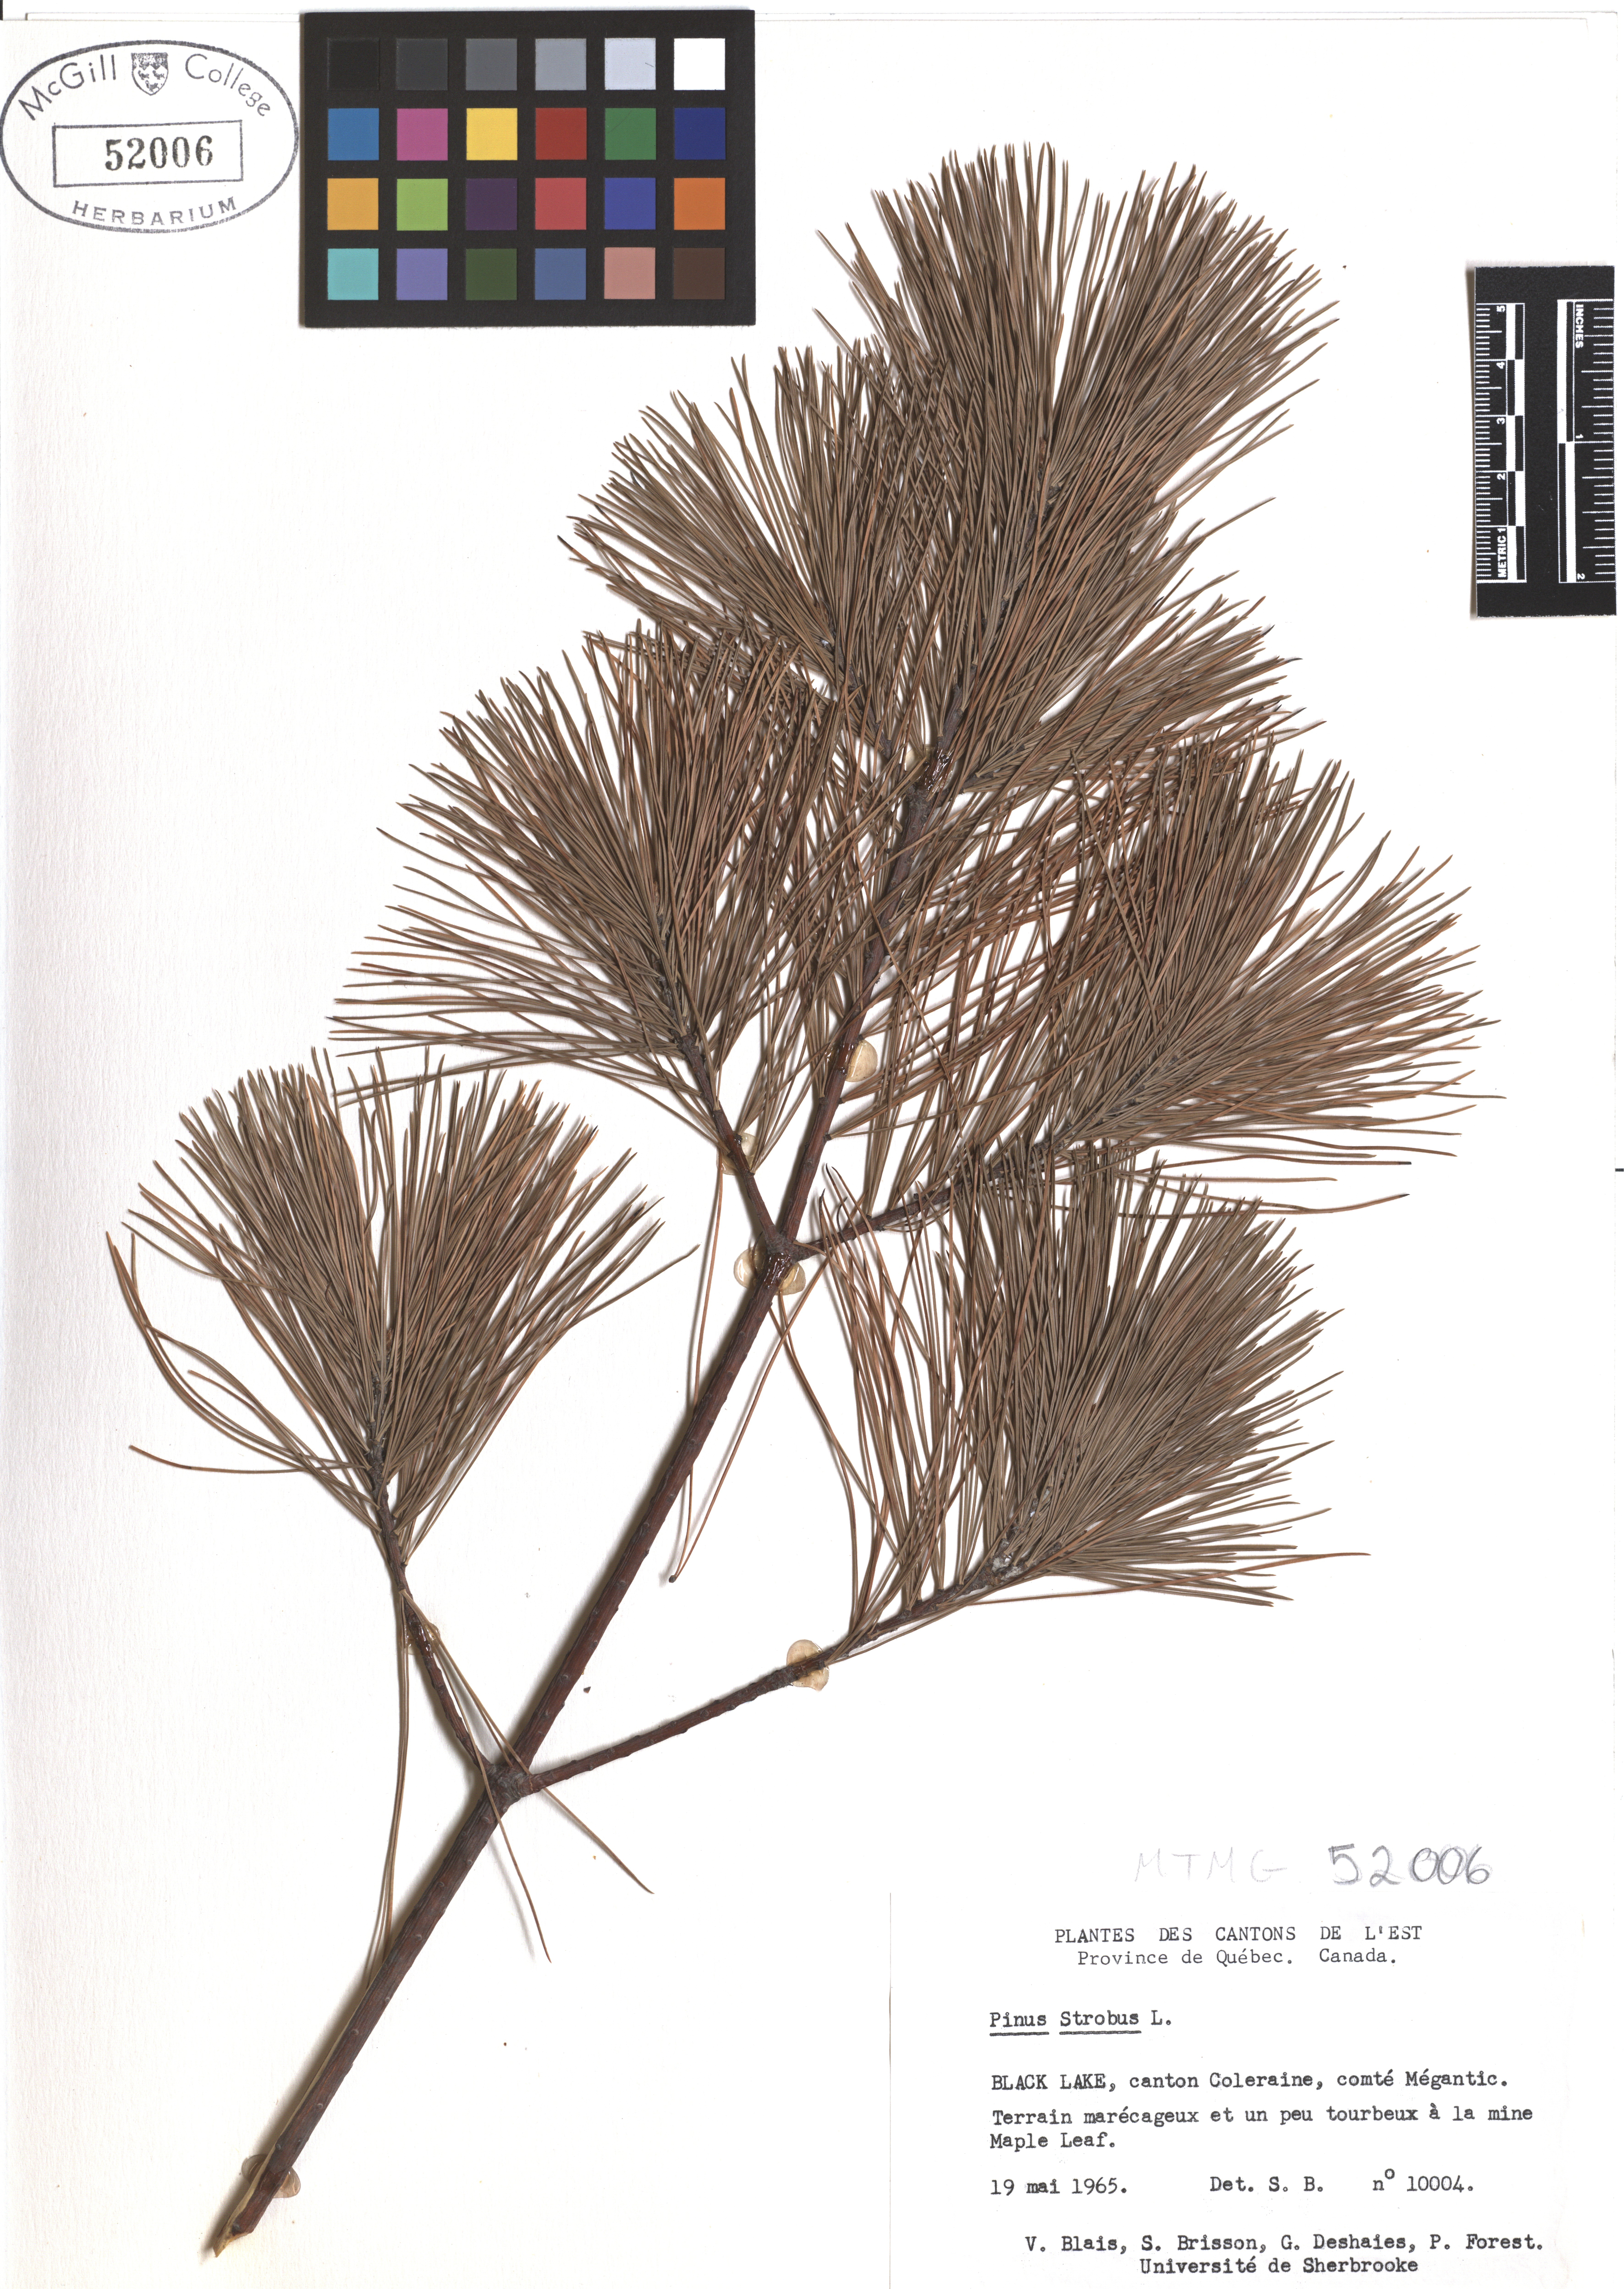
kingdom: Plantae
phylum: Tracheophyta
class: Pinopsida
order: Pinales
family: Pinaceae
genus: Pinus
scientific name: Pinus strobus
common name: Weymouth pine
